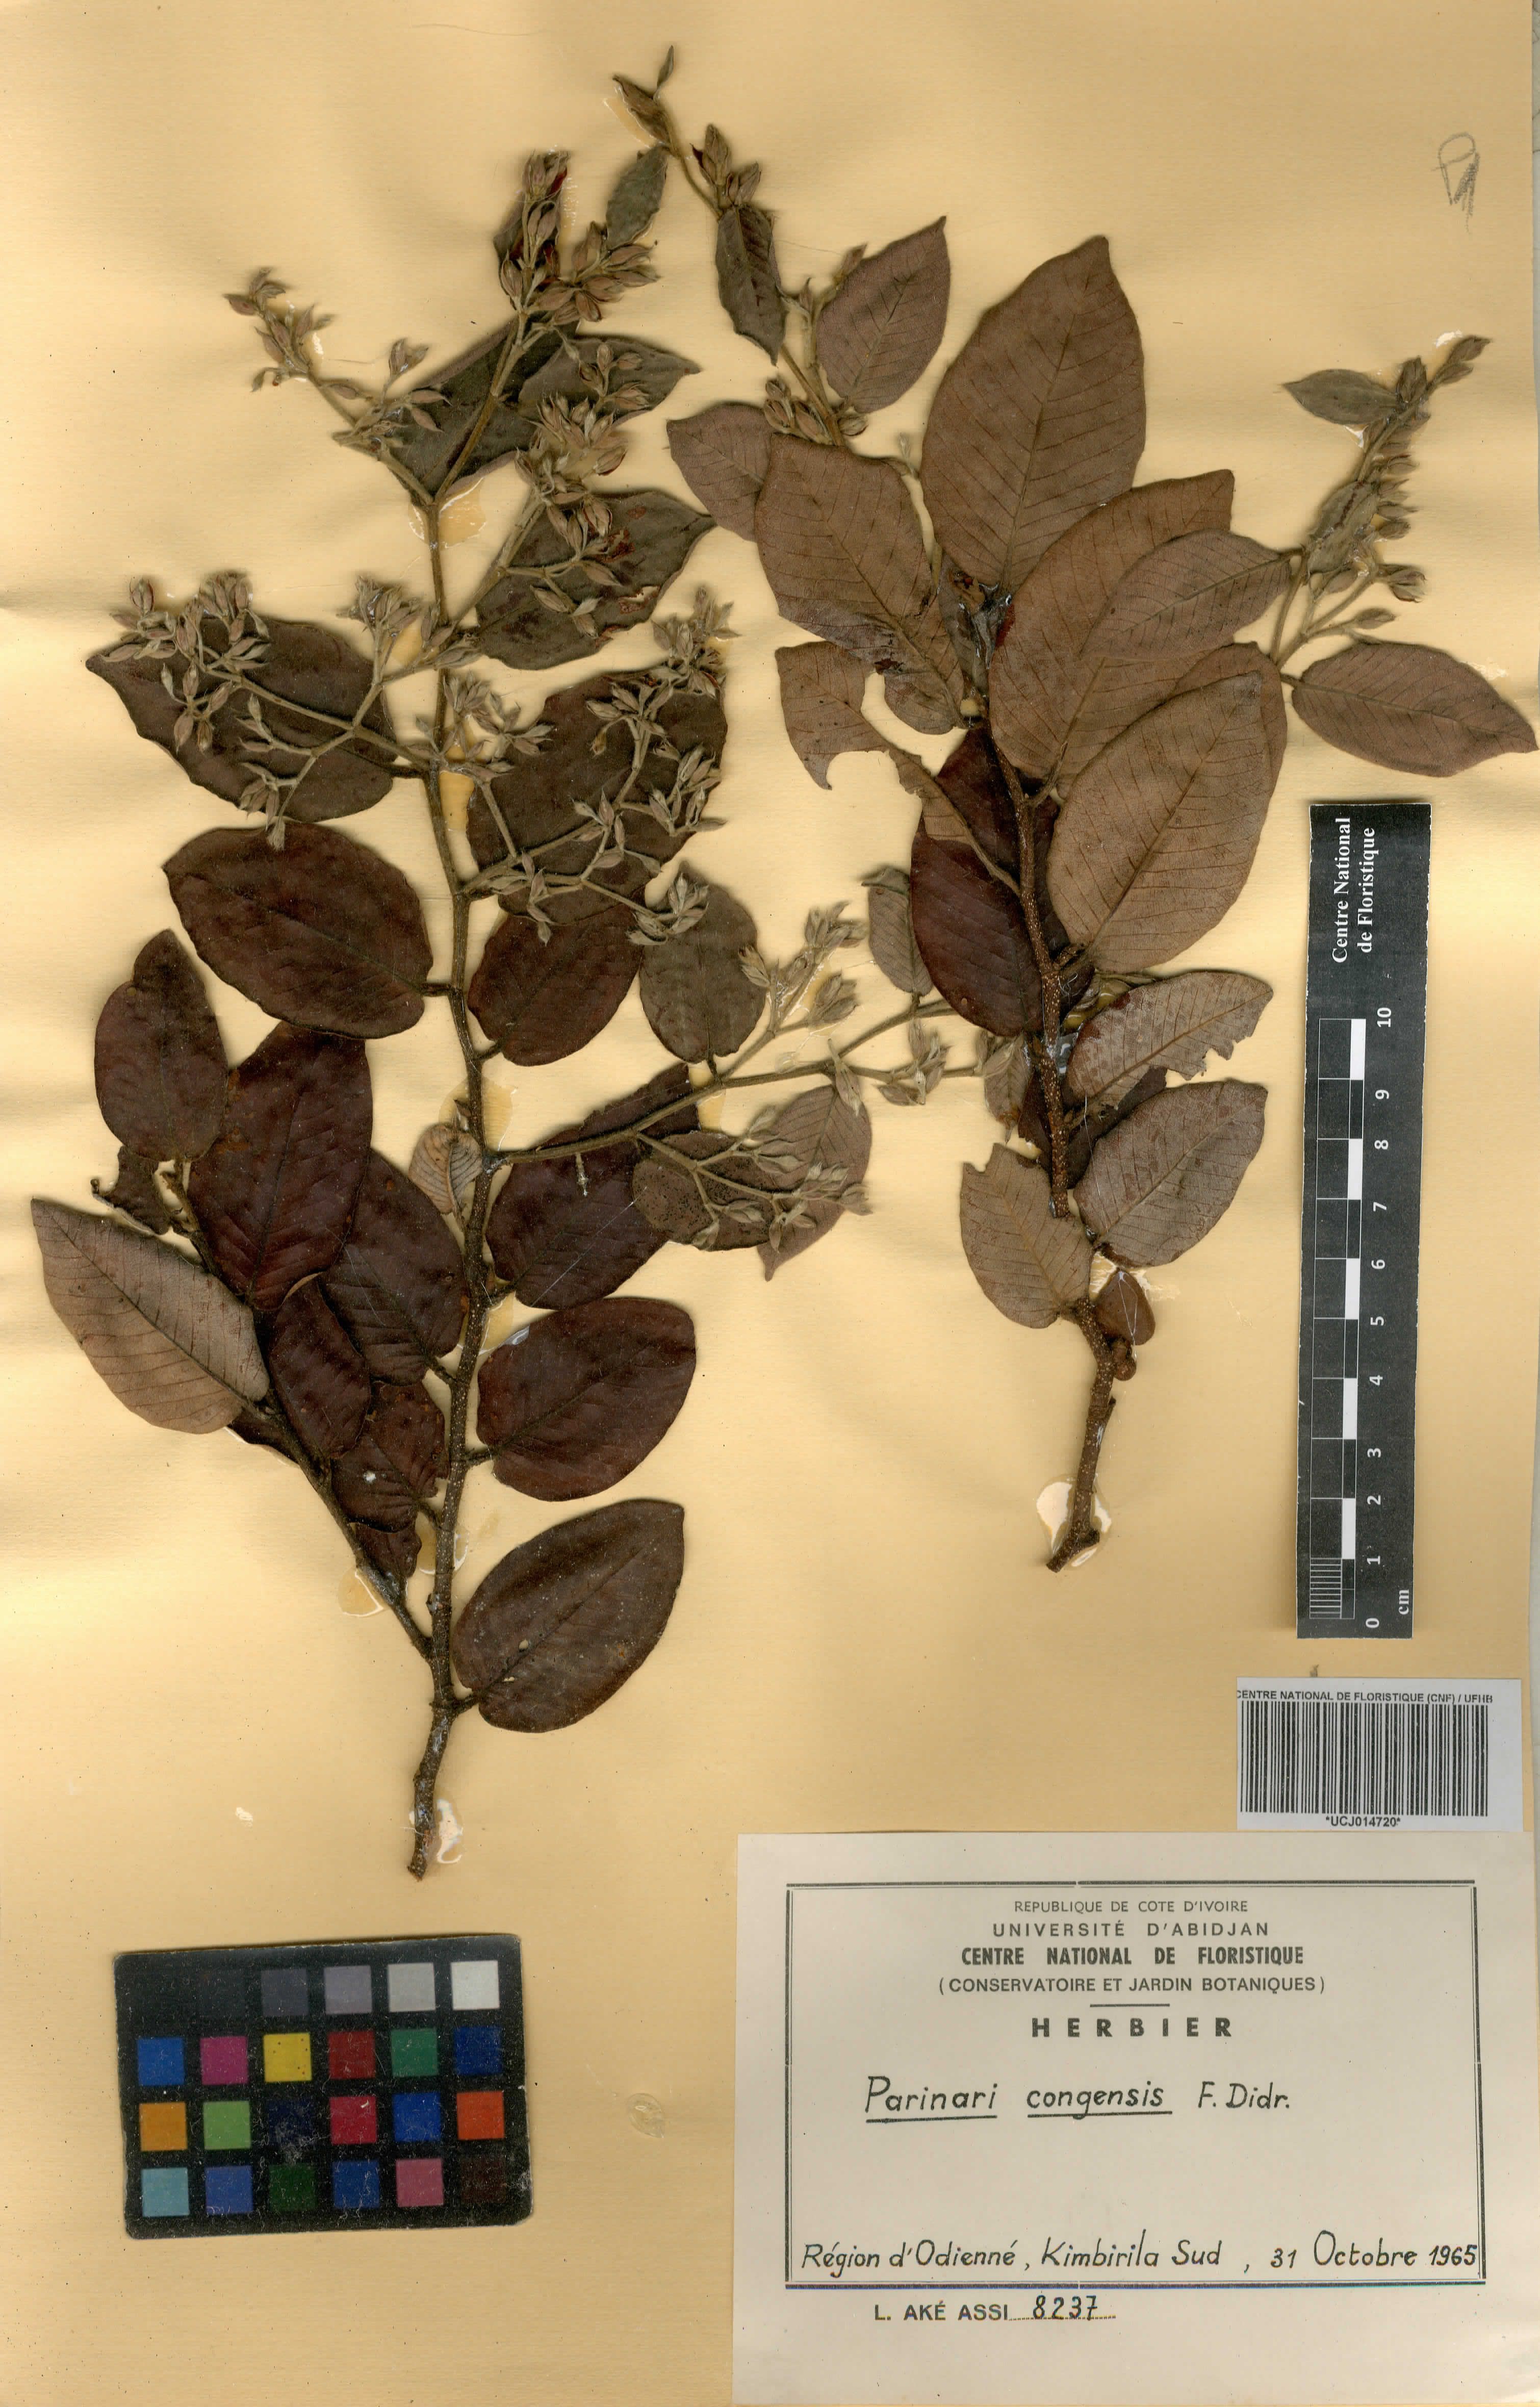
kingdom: Plantae
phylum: Tracheophyta
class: Magnoliopsida
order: Malpighiales
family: Chrysobalanaceae
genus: Parinari
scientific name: Parinari congensis
